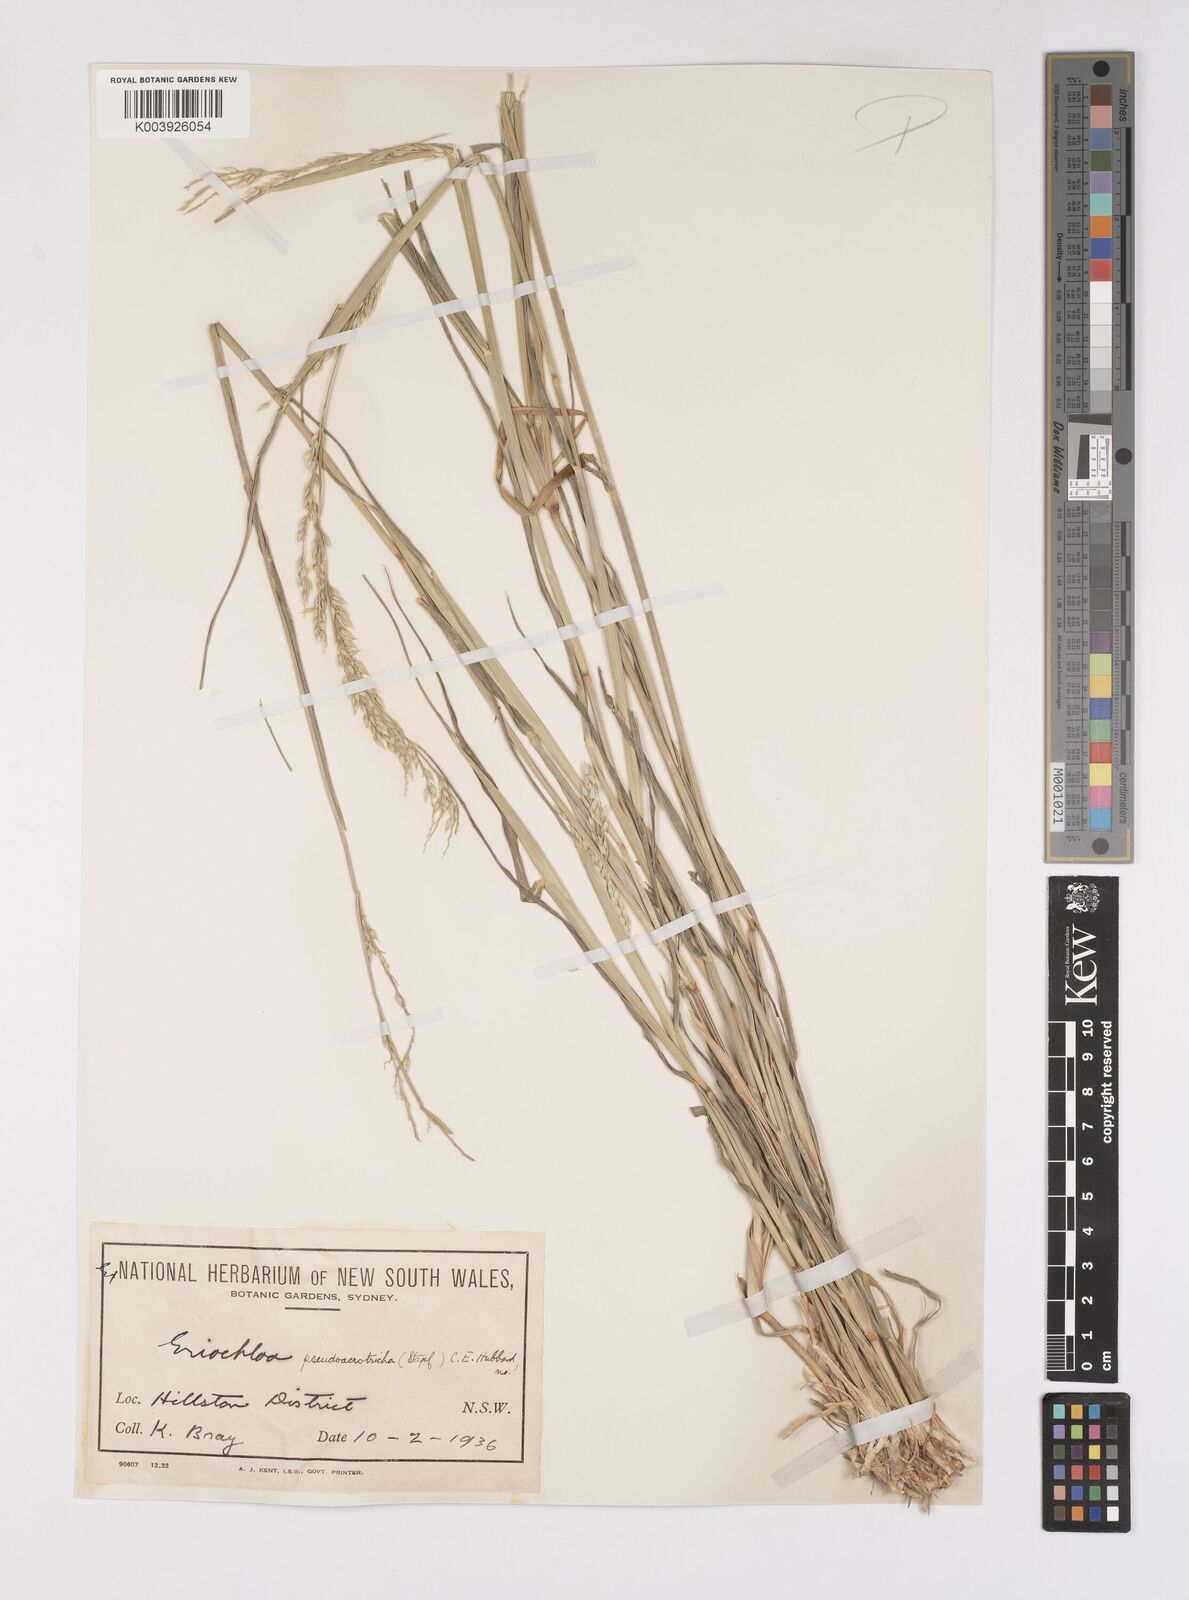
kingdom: Plantae
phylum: Tracheophyta
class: Liliopsida
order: Poales
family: Poaceae
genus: Eriochloa
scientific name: Eriochloa pseudoacrotricha
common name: Perennial cup-grass
